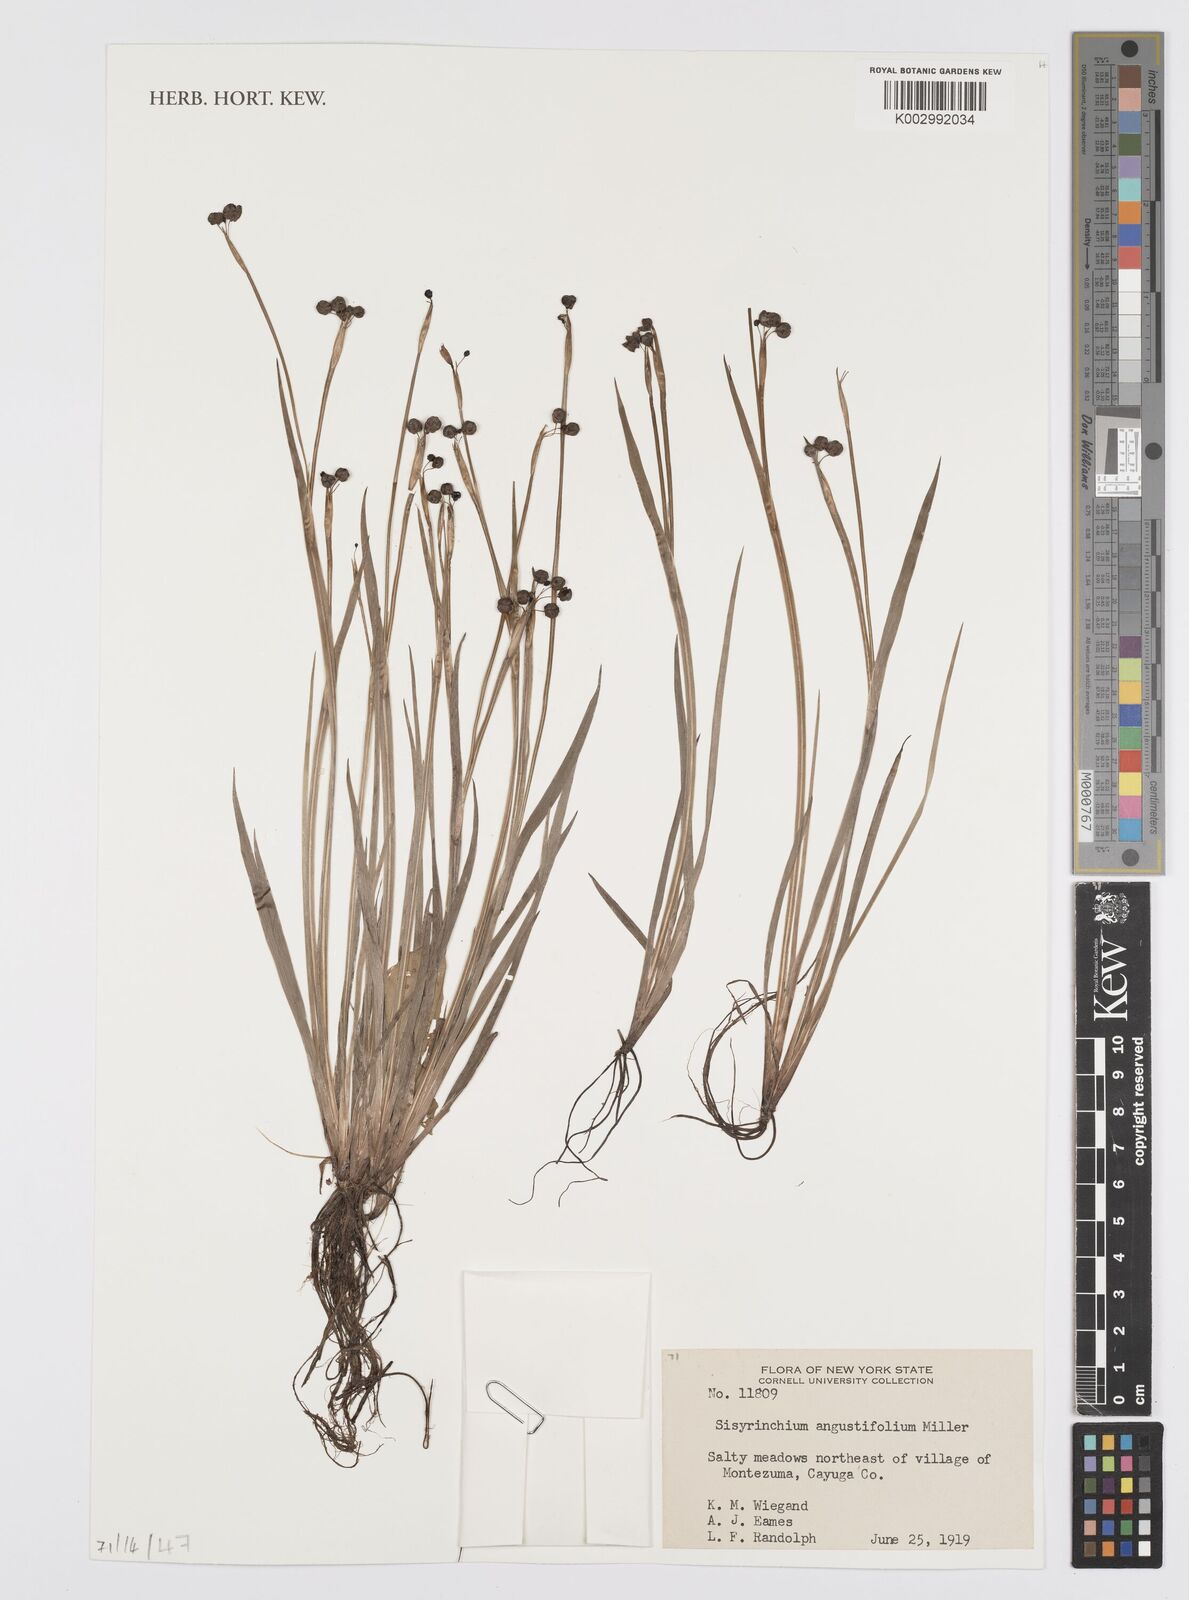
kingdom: Plantae
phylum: Tracheophyta
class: Liliopsida
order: Asparagales
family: Iridaceae
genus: Sisyrinchium
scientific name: Sisyrinchium angustifolium
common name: Narrow-leaf blue-eyed-grass
